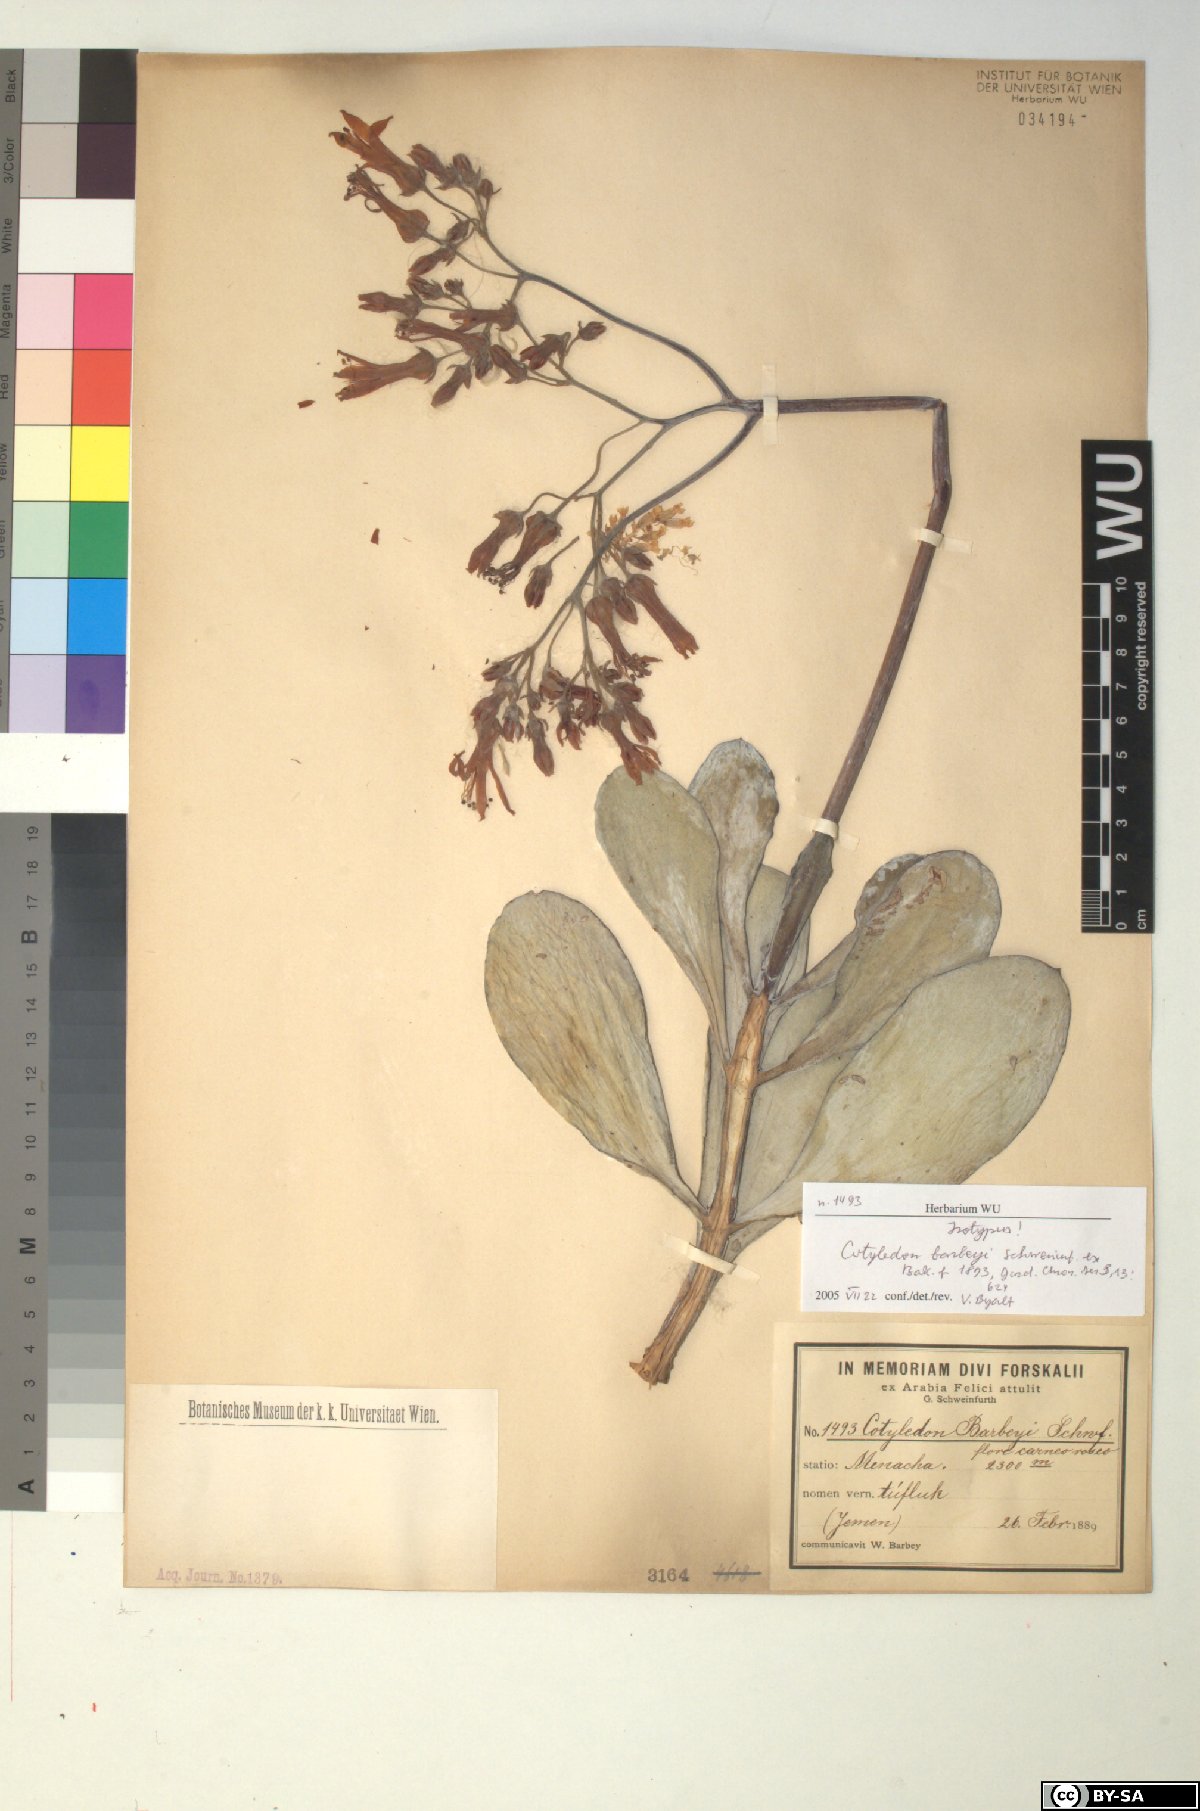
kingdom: Plantae
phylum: Tracheophyta
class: Magnoliopsida
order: Saxifragales
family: Crassulaceae
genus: Cotyledon
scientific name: Cotyledon barbeyi
